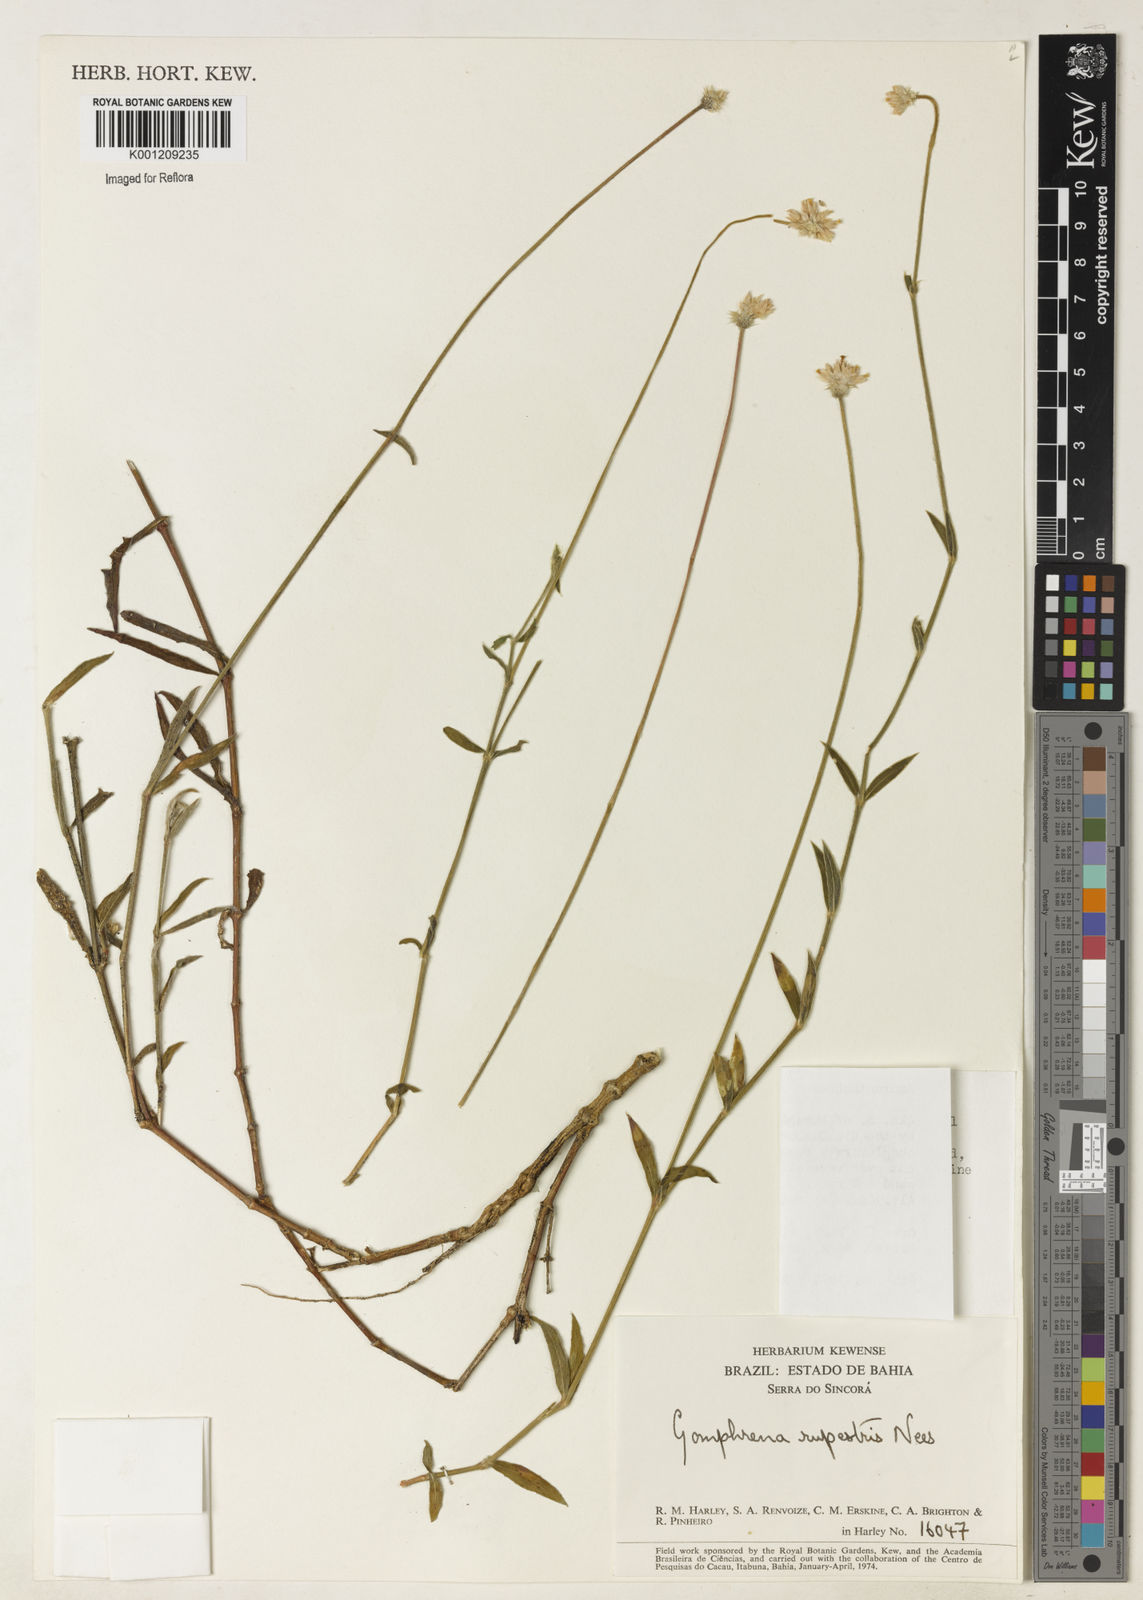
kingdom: Plantae
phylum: Tracheophyta
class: Magnoliopsida
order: Caryophyllales
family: Amaranthaceae
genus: Gomphrena
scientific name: Gomphrena rupestris
